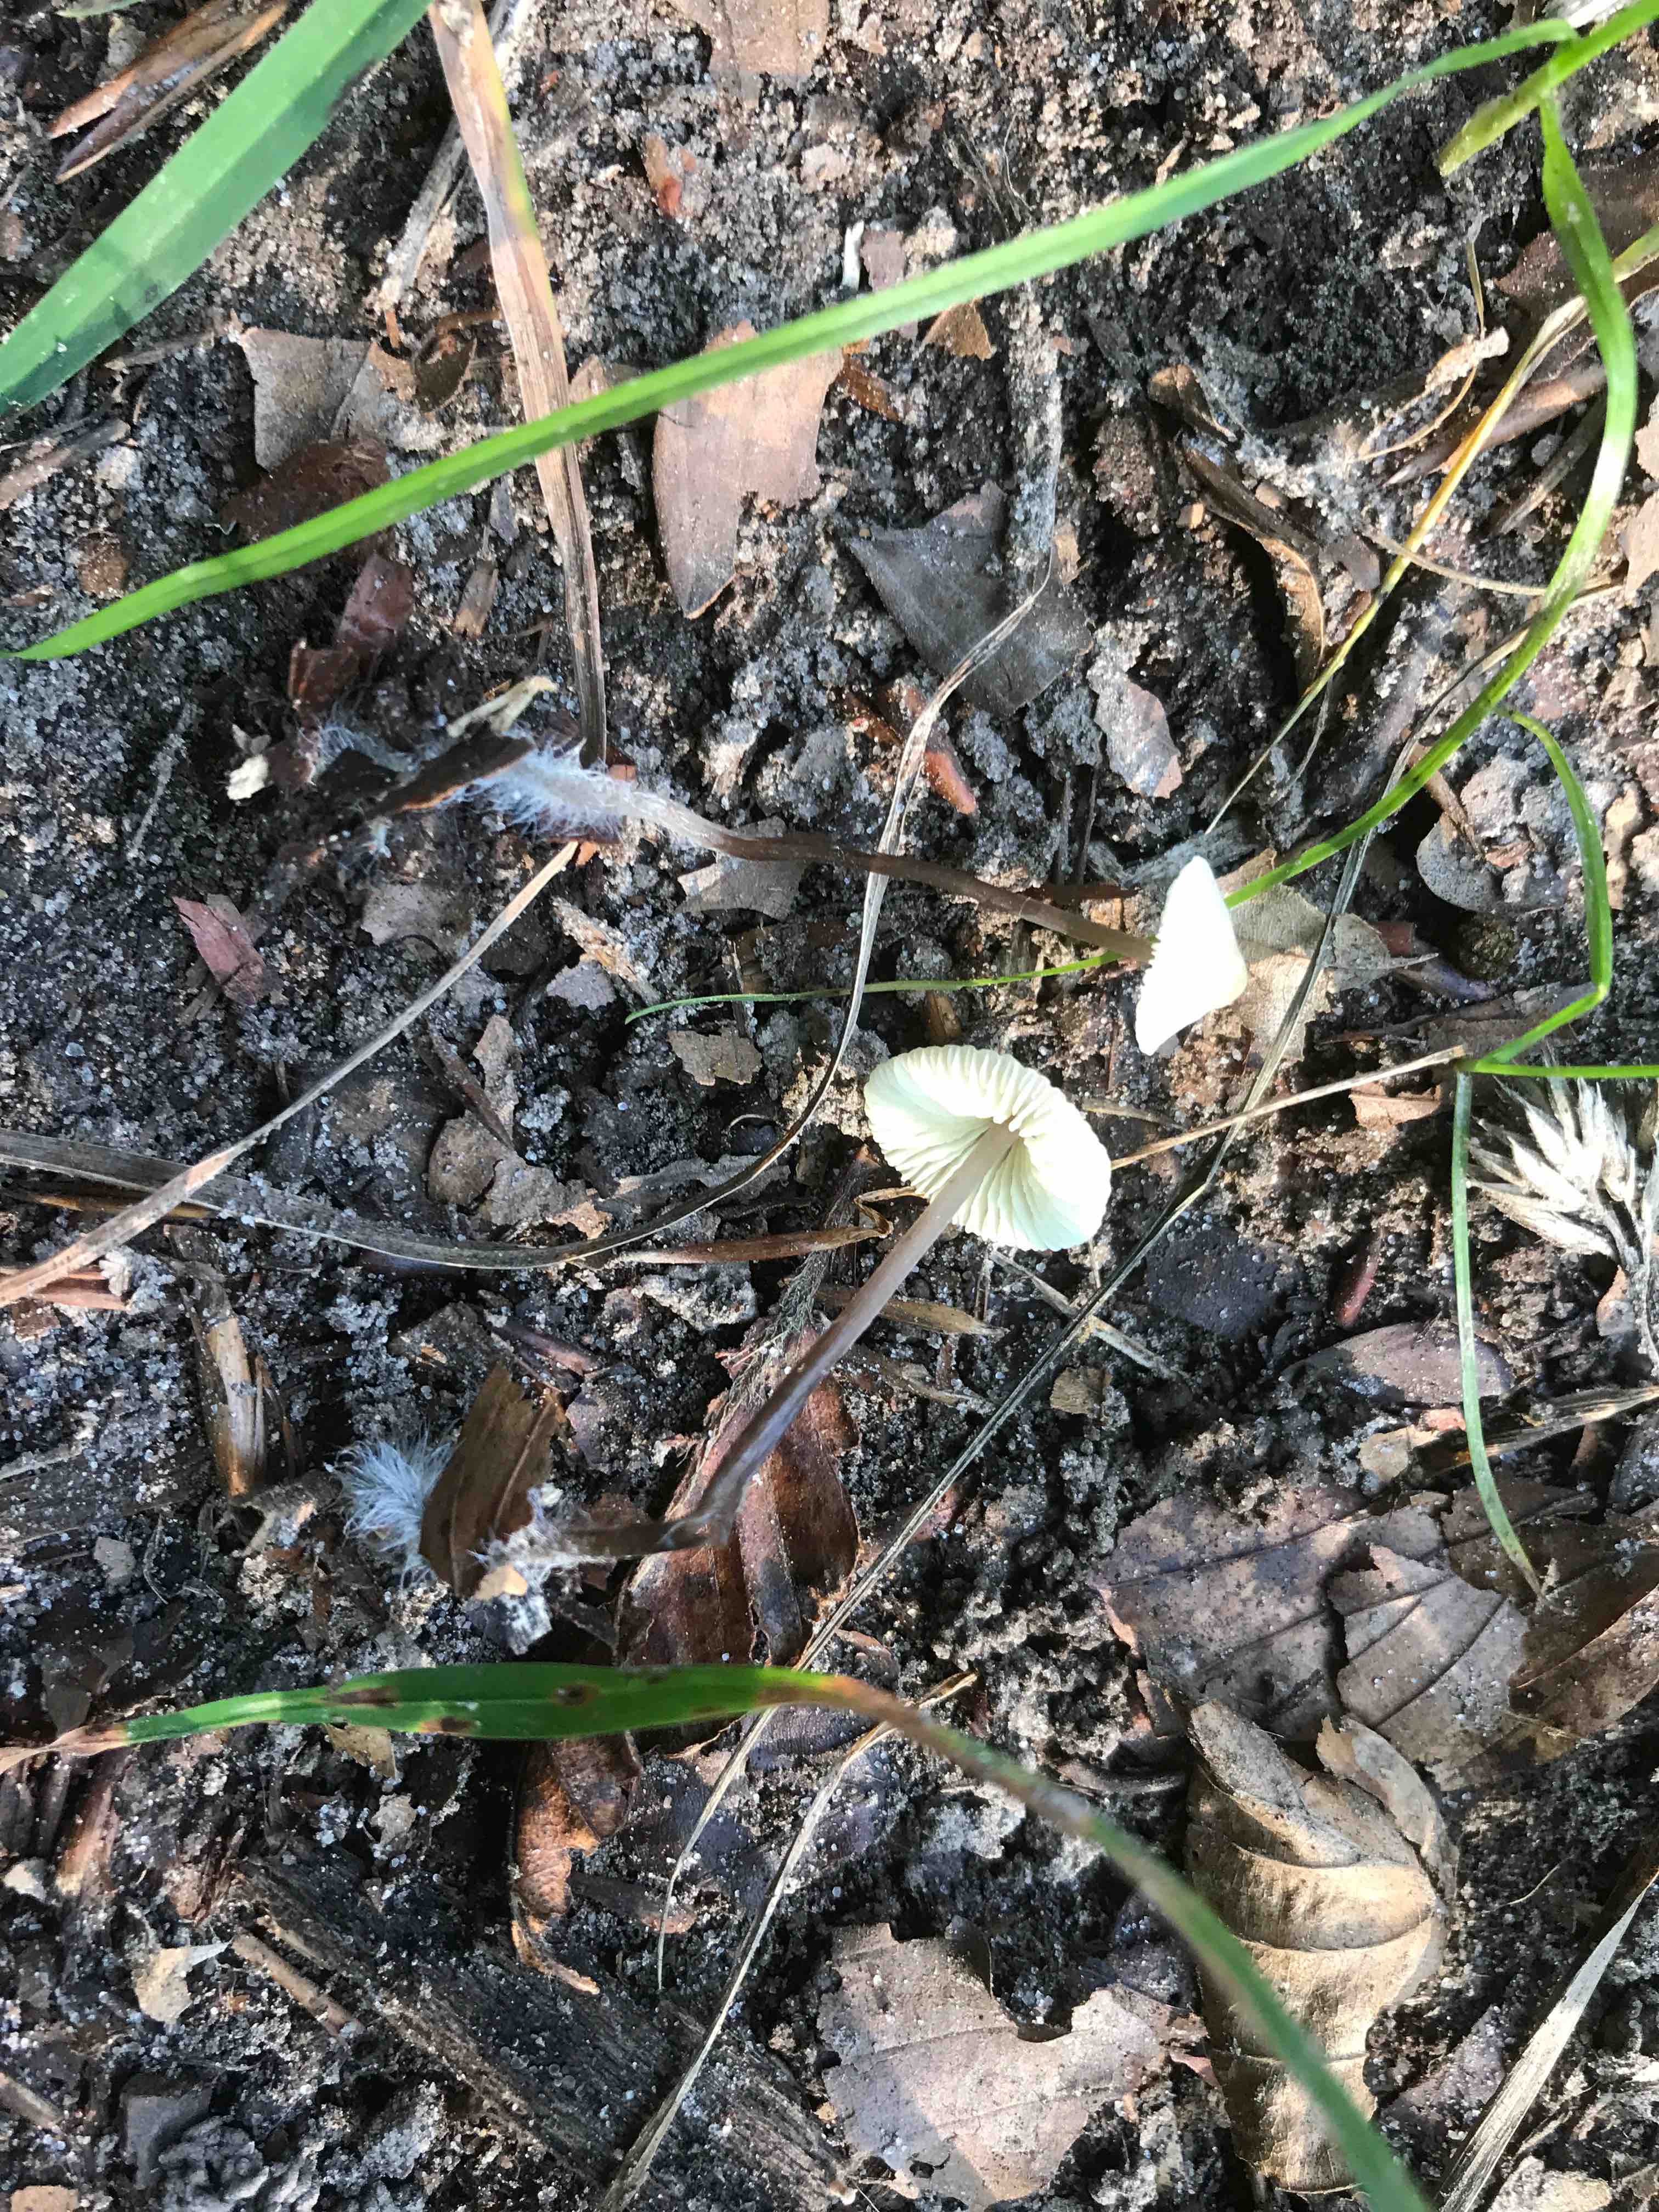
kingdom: Fungi
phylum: Basidiomycota
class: Agaricomycetes
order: Agaricales
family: Mycenaceae
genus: Mycena
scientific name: Mycena flavescens
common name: grågul huesvamp
